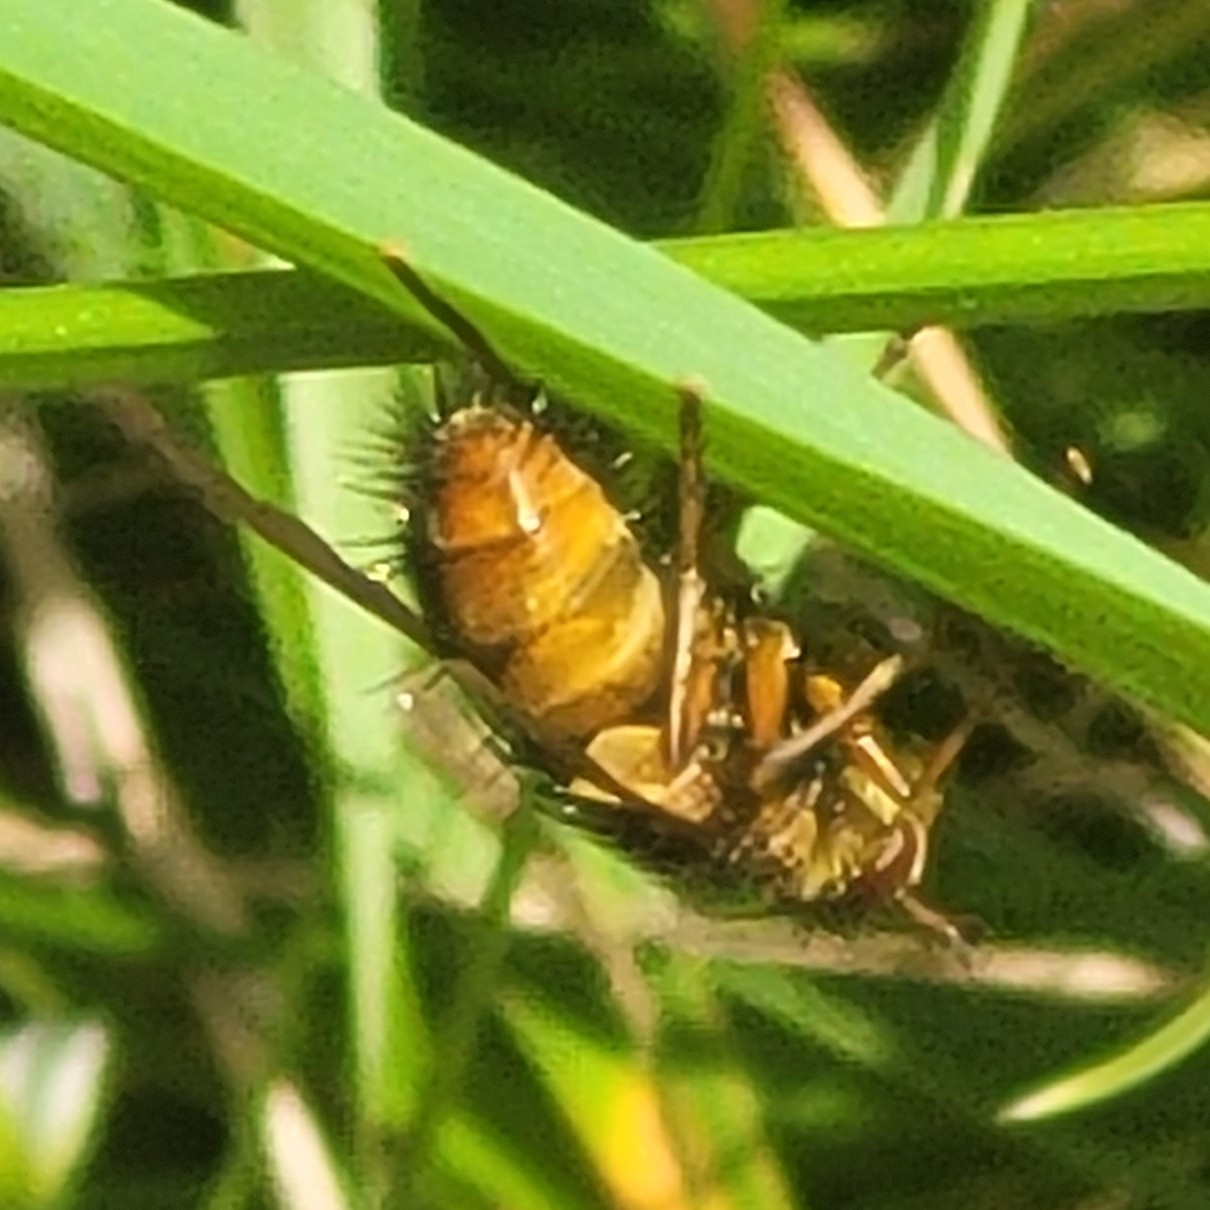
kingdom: Animalia
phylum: Arthropoda
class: Insecta
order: Diptera
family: Tachinidae
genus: Tachina
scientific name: Tachina fera
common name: Mellemfluen oskar
